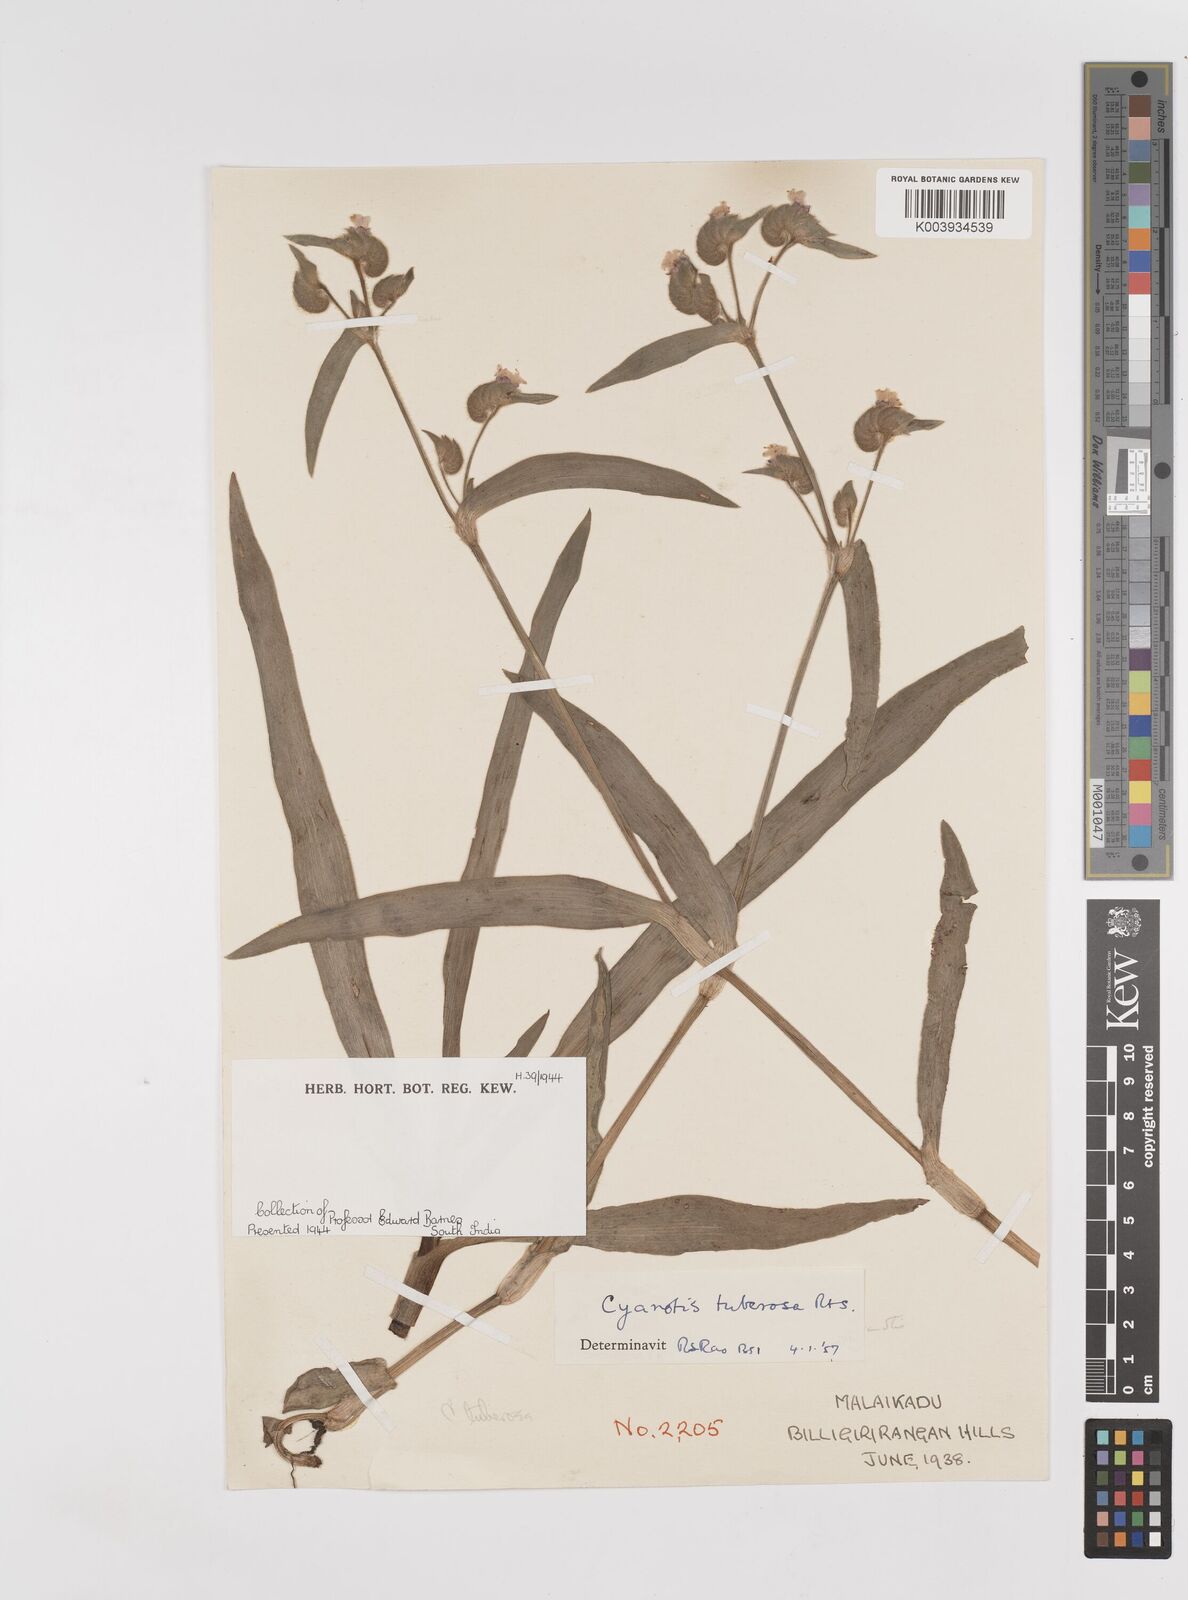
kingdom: Plantae
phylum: Tracheophyta
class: Liliopsida
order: Commelinales
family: Commelinaceae
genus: Cyanotis
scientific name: Cyanotis tuberosa
